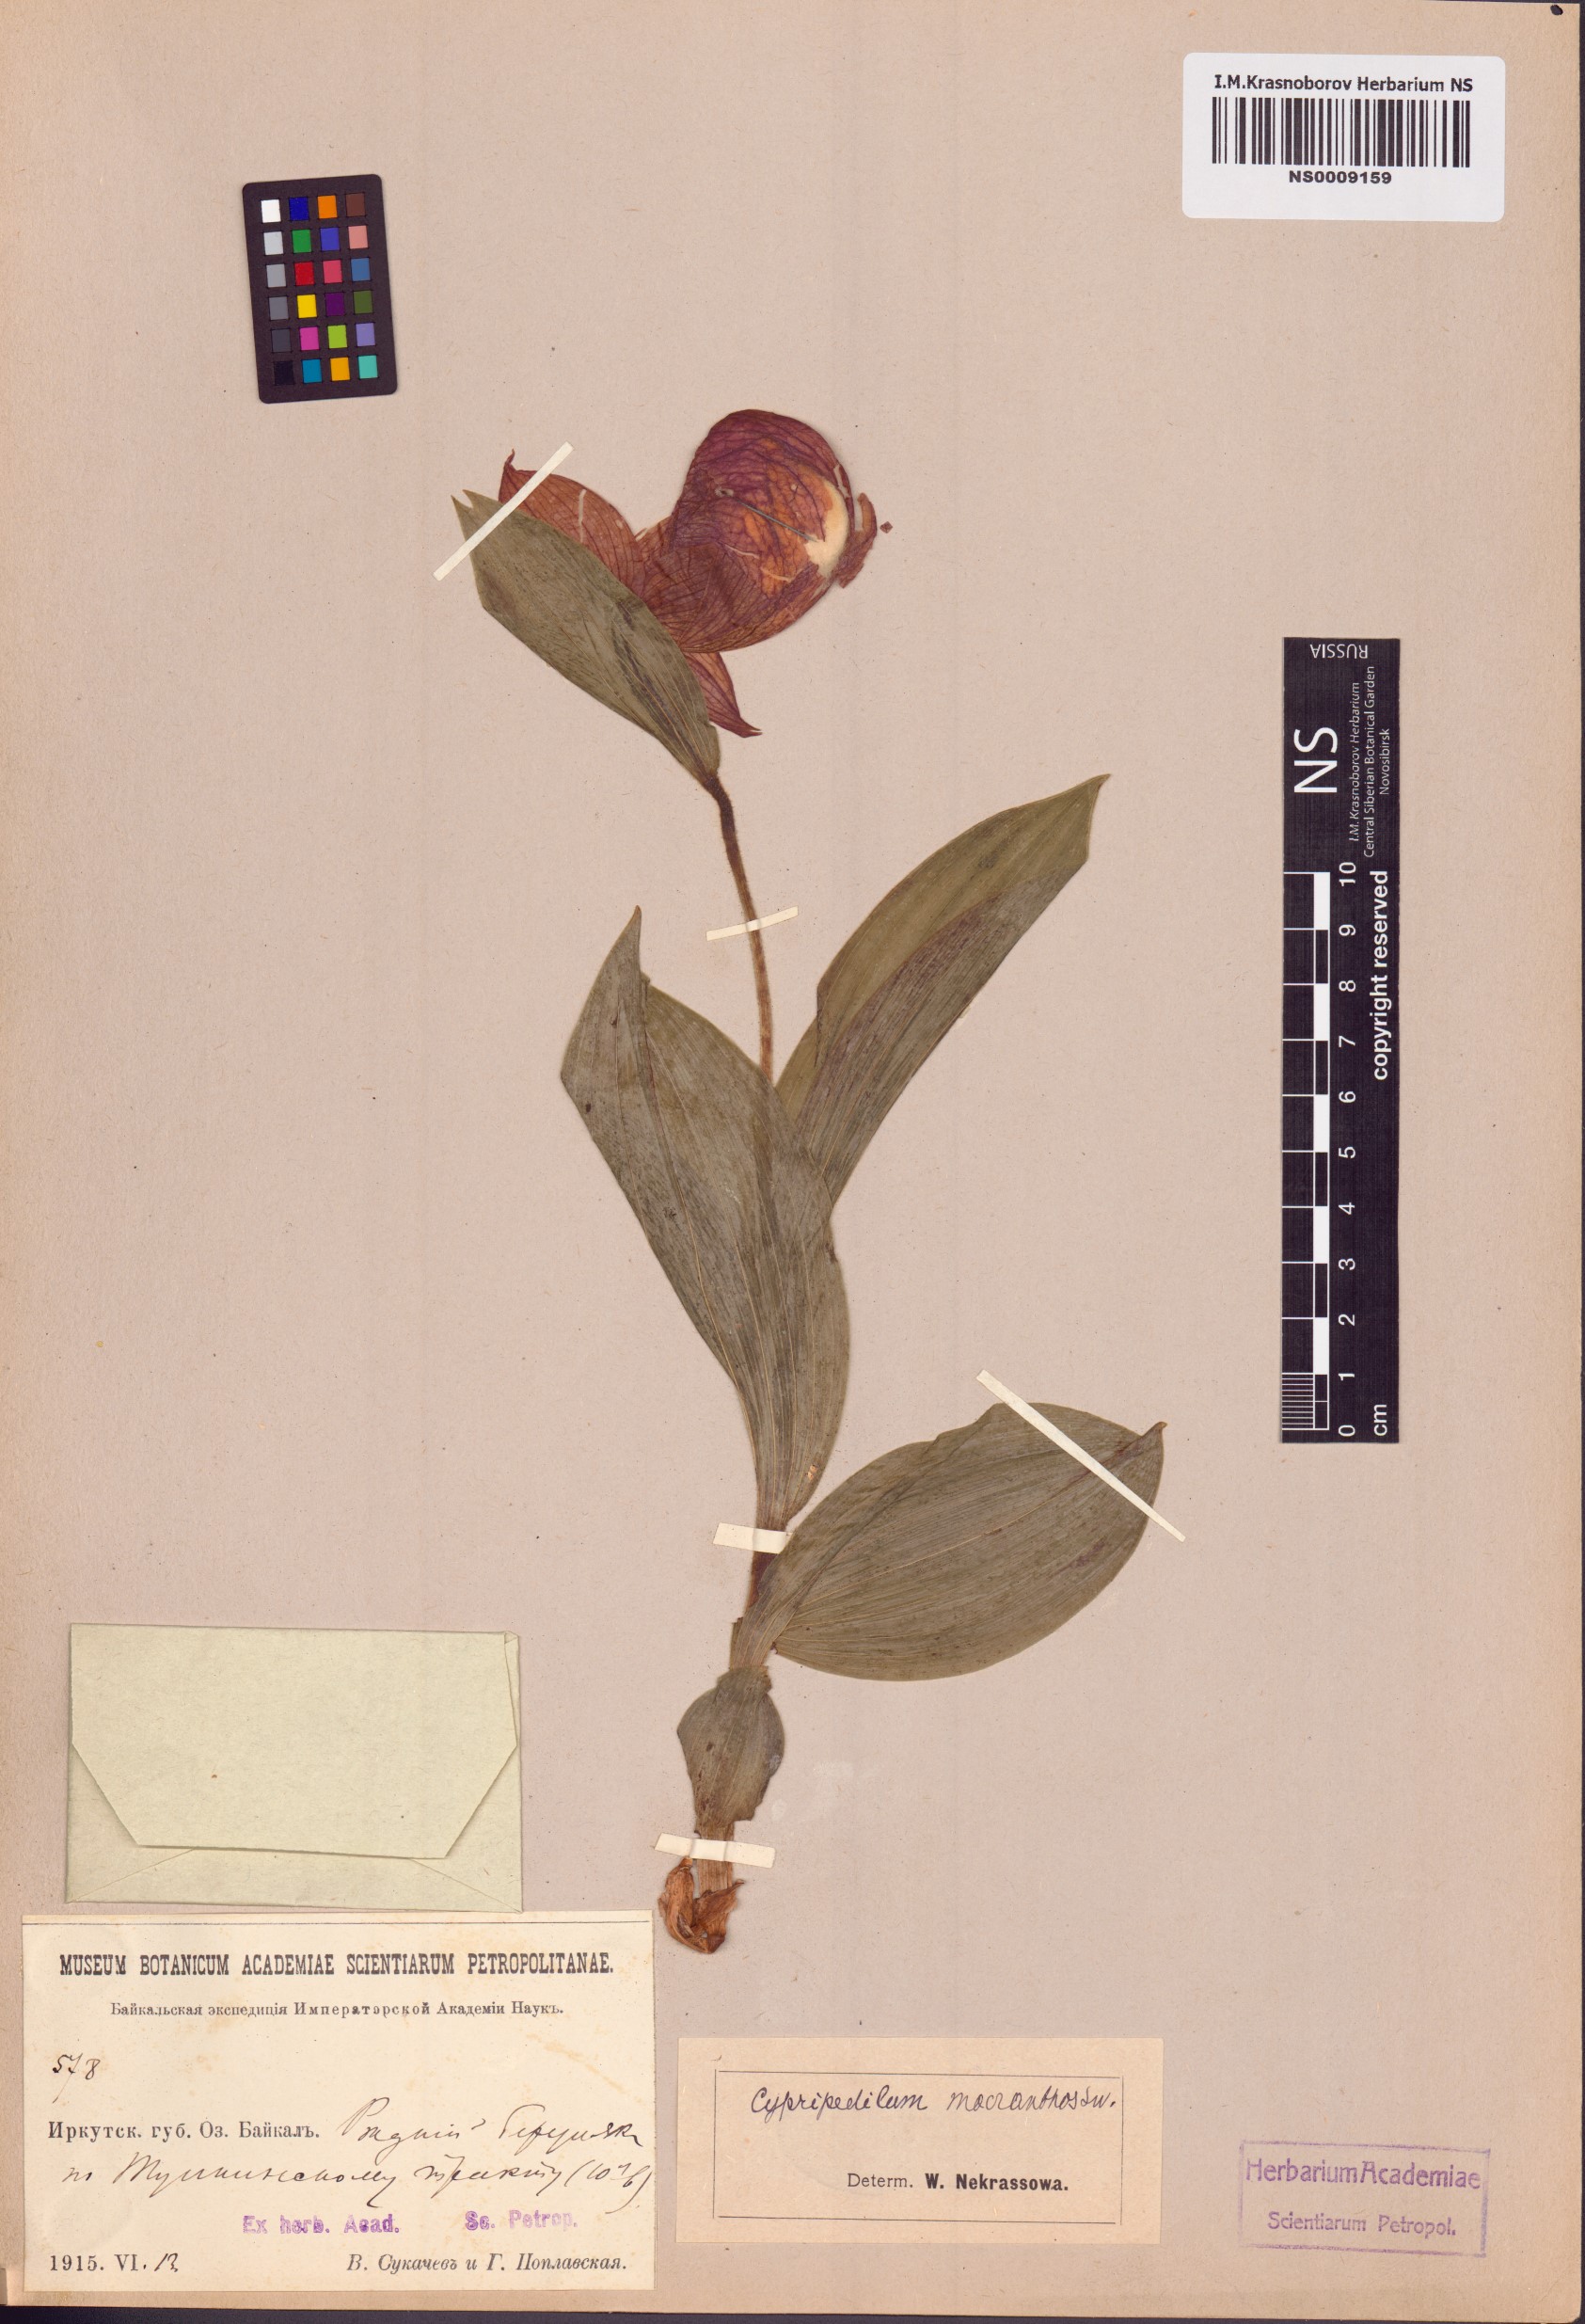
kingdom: Plantae
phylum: Tracheophyta
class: Liliopsida
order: Asparagales
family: Orchidaceae
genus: Cypripedium
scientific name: Cypripedium macranthos
